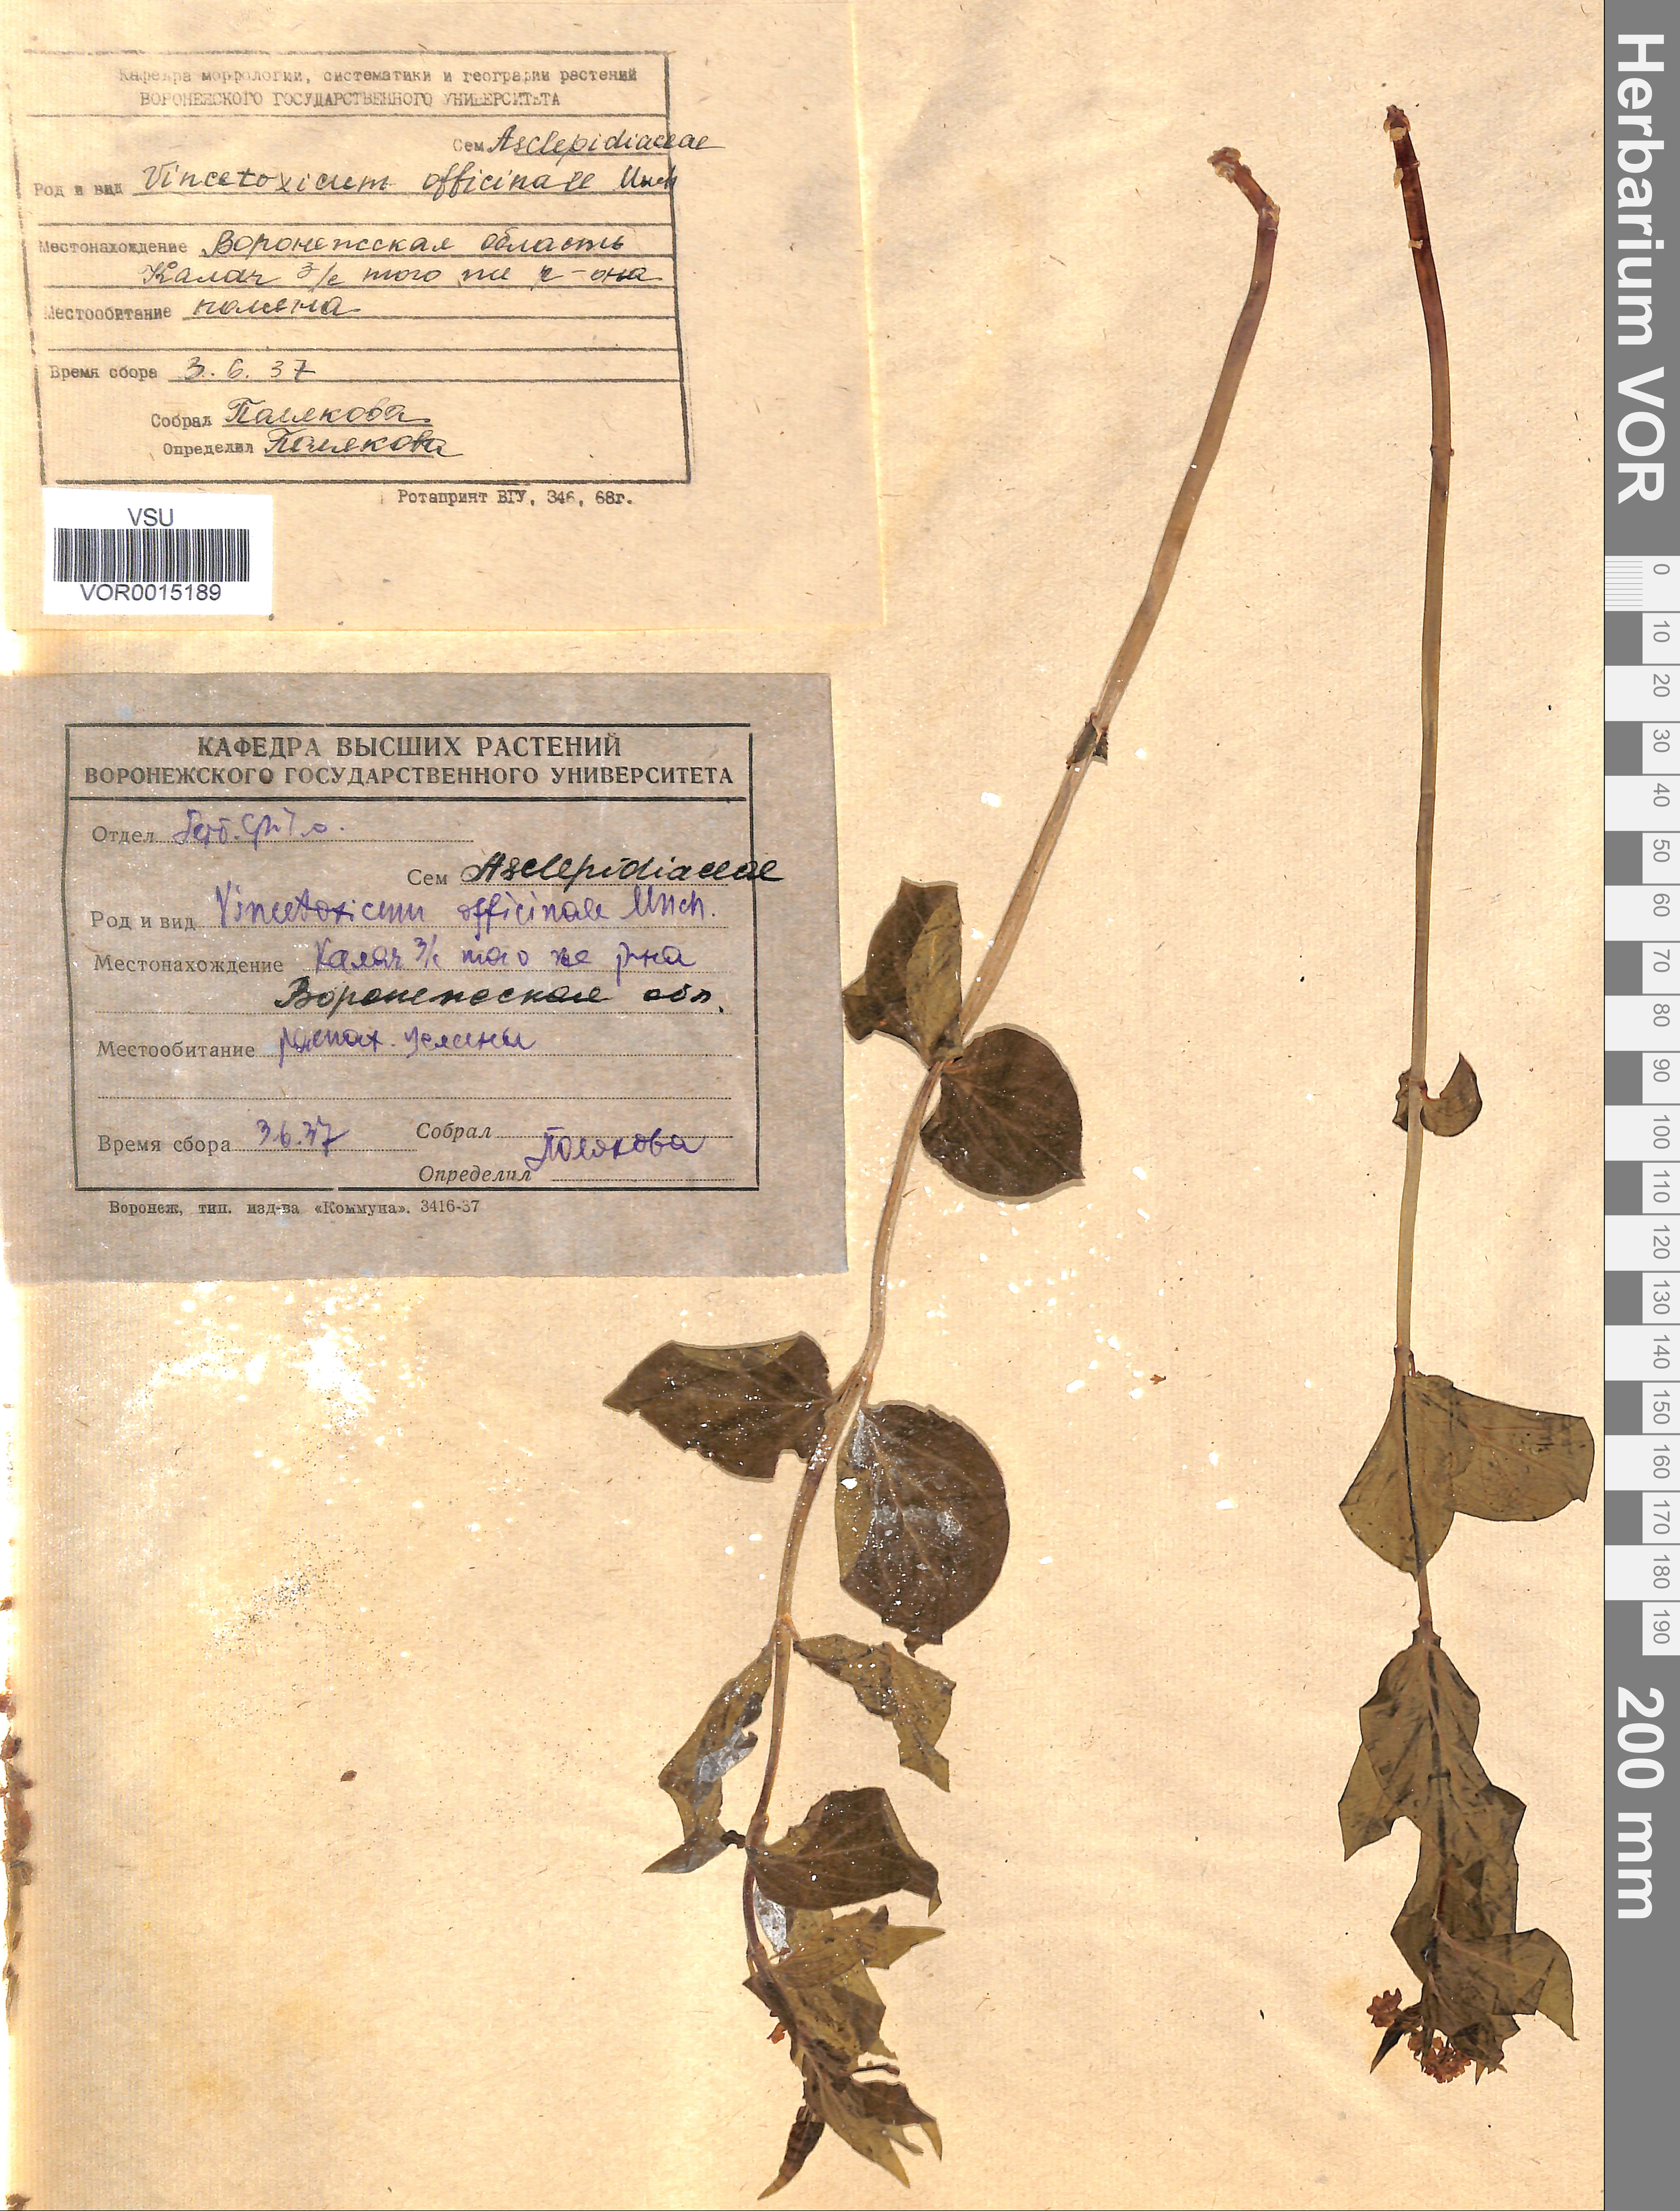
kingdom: Plantae
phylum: Tracheophyta
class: Magnoliopsida
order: Gentianales
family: Apocynaceae
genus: Vincetoxicum
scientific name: Vincetoxicum hirundinaria
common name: White swallowwort
